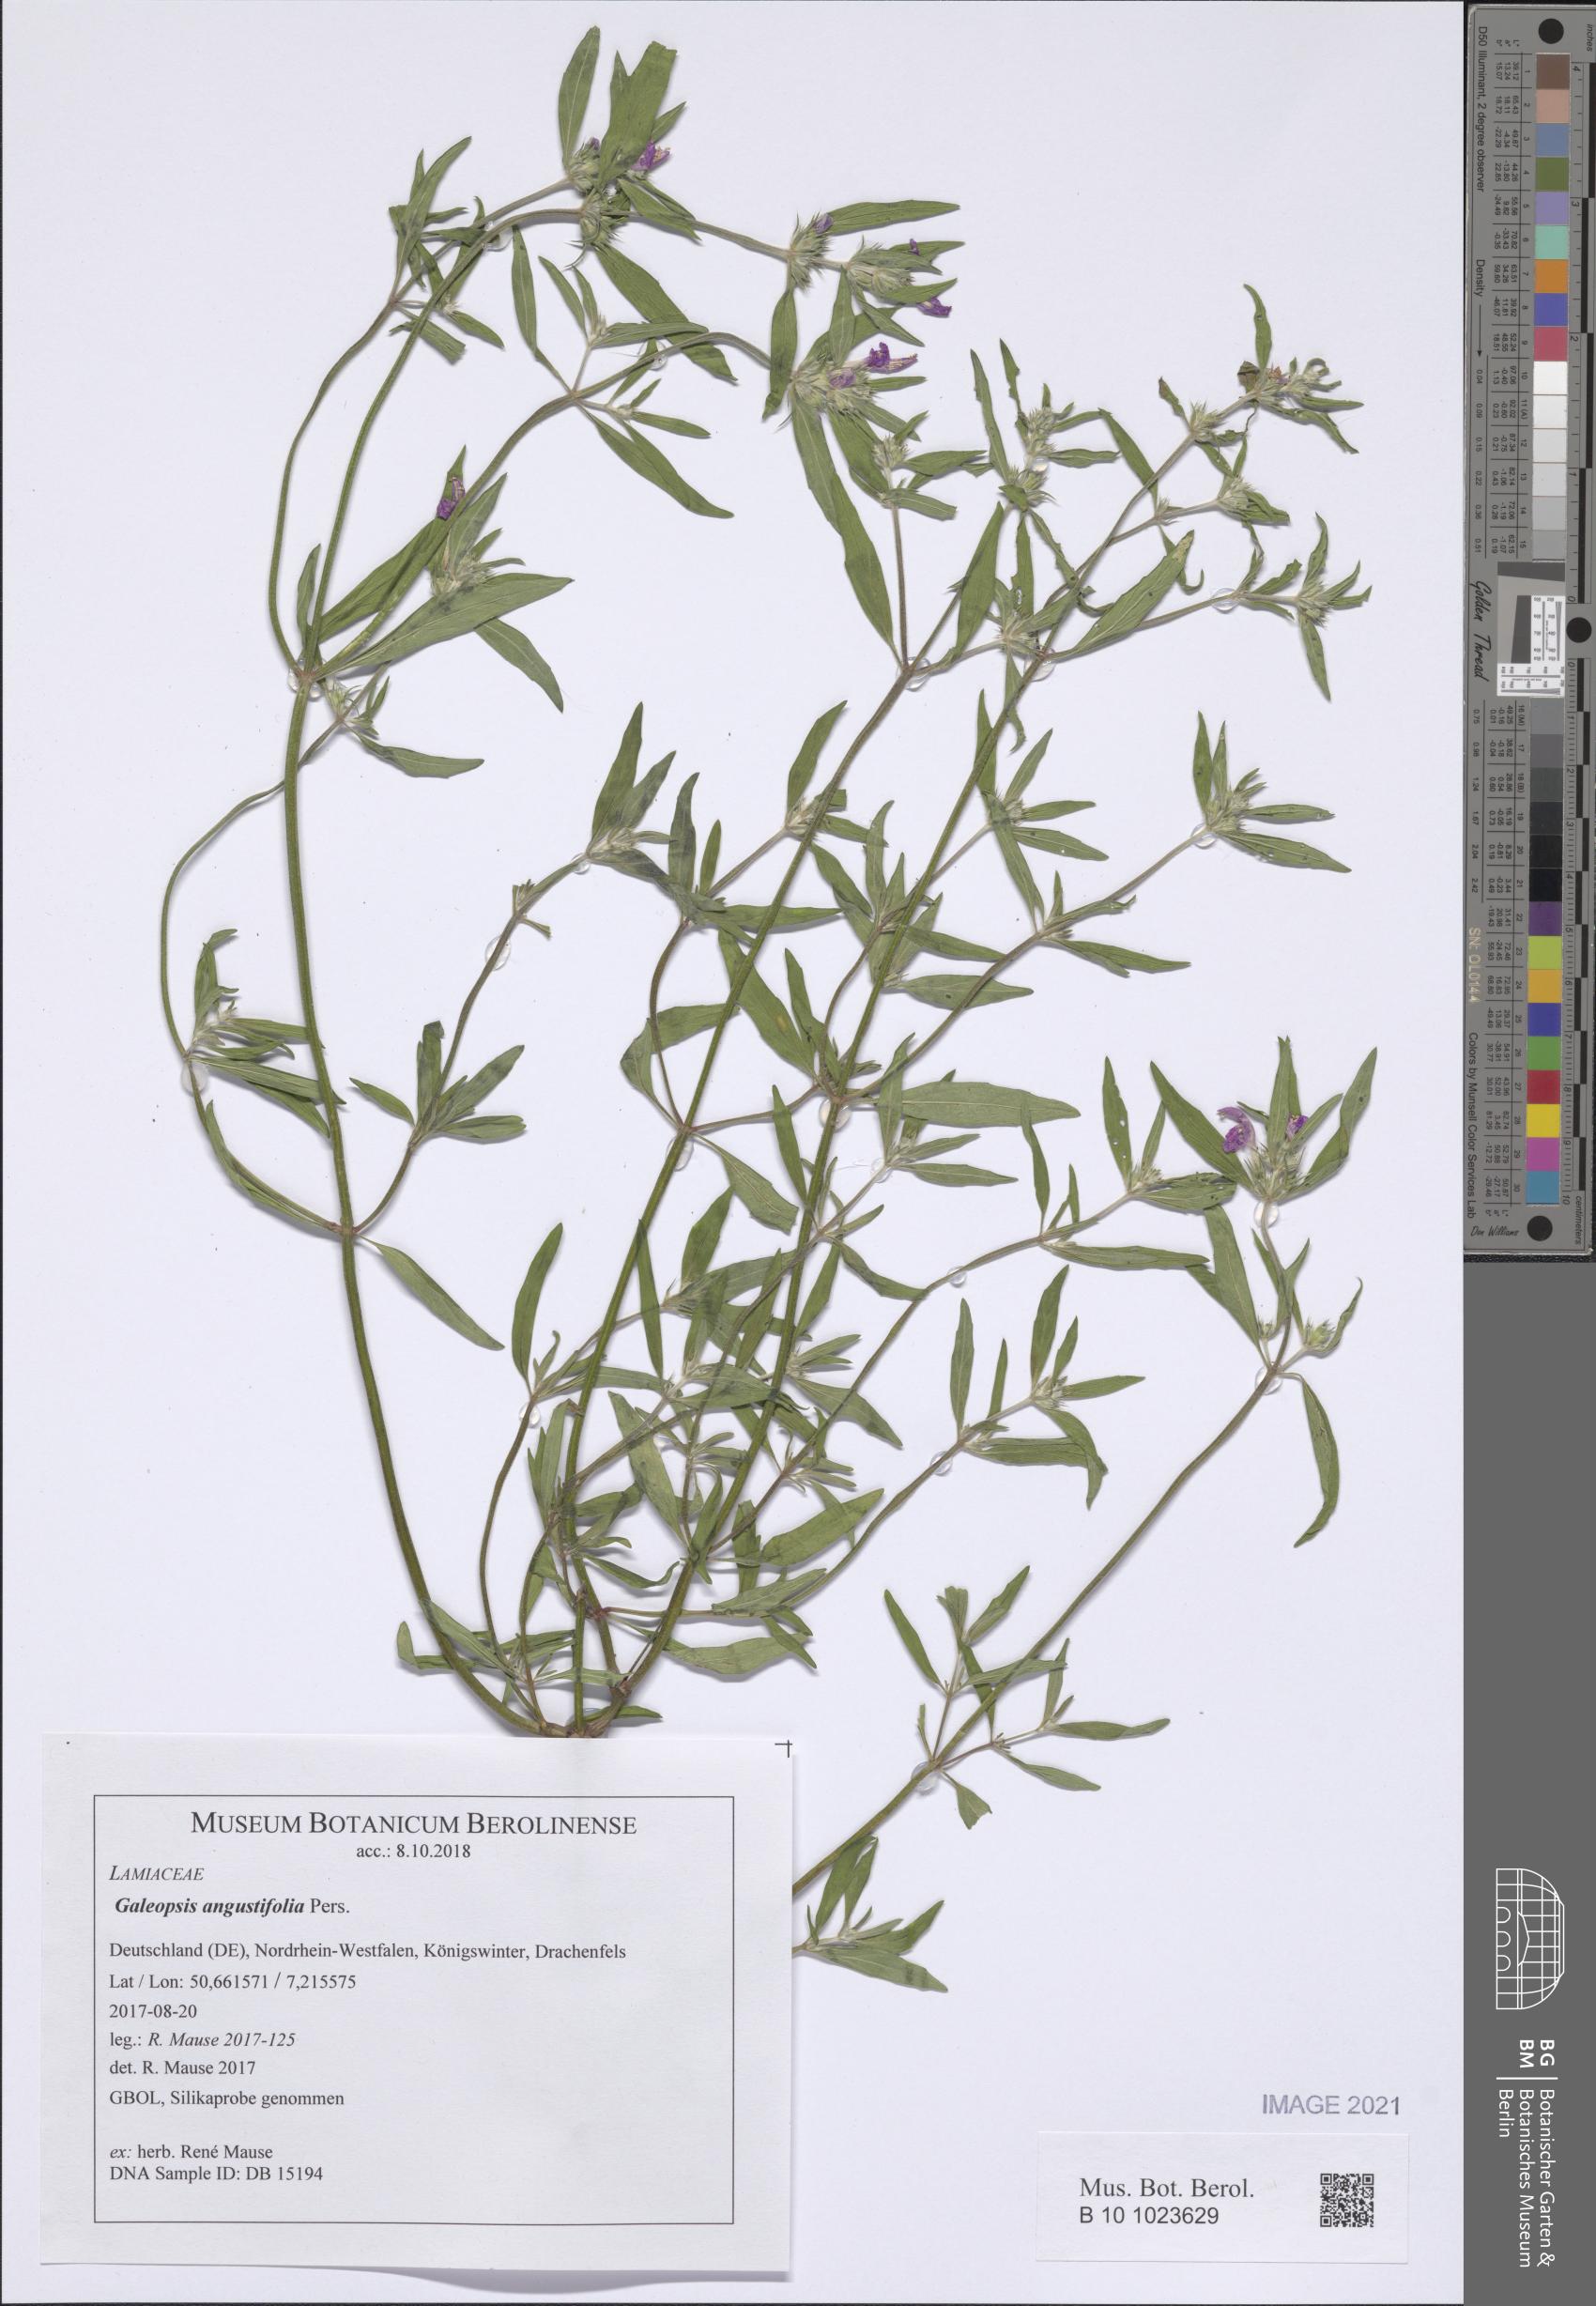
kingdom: Plantae
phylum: Tracheophyta
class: Magnoliopsida
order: Lamiales
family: Lamiaceae
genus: Galeopsis
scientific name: Galeopsis angustifolia
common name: Red hemp-nettle
